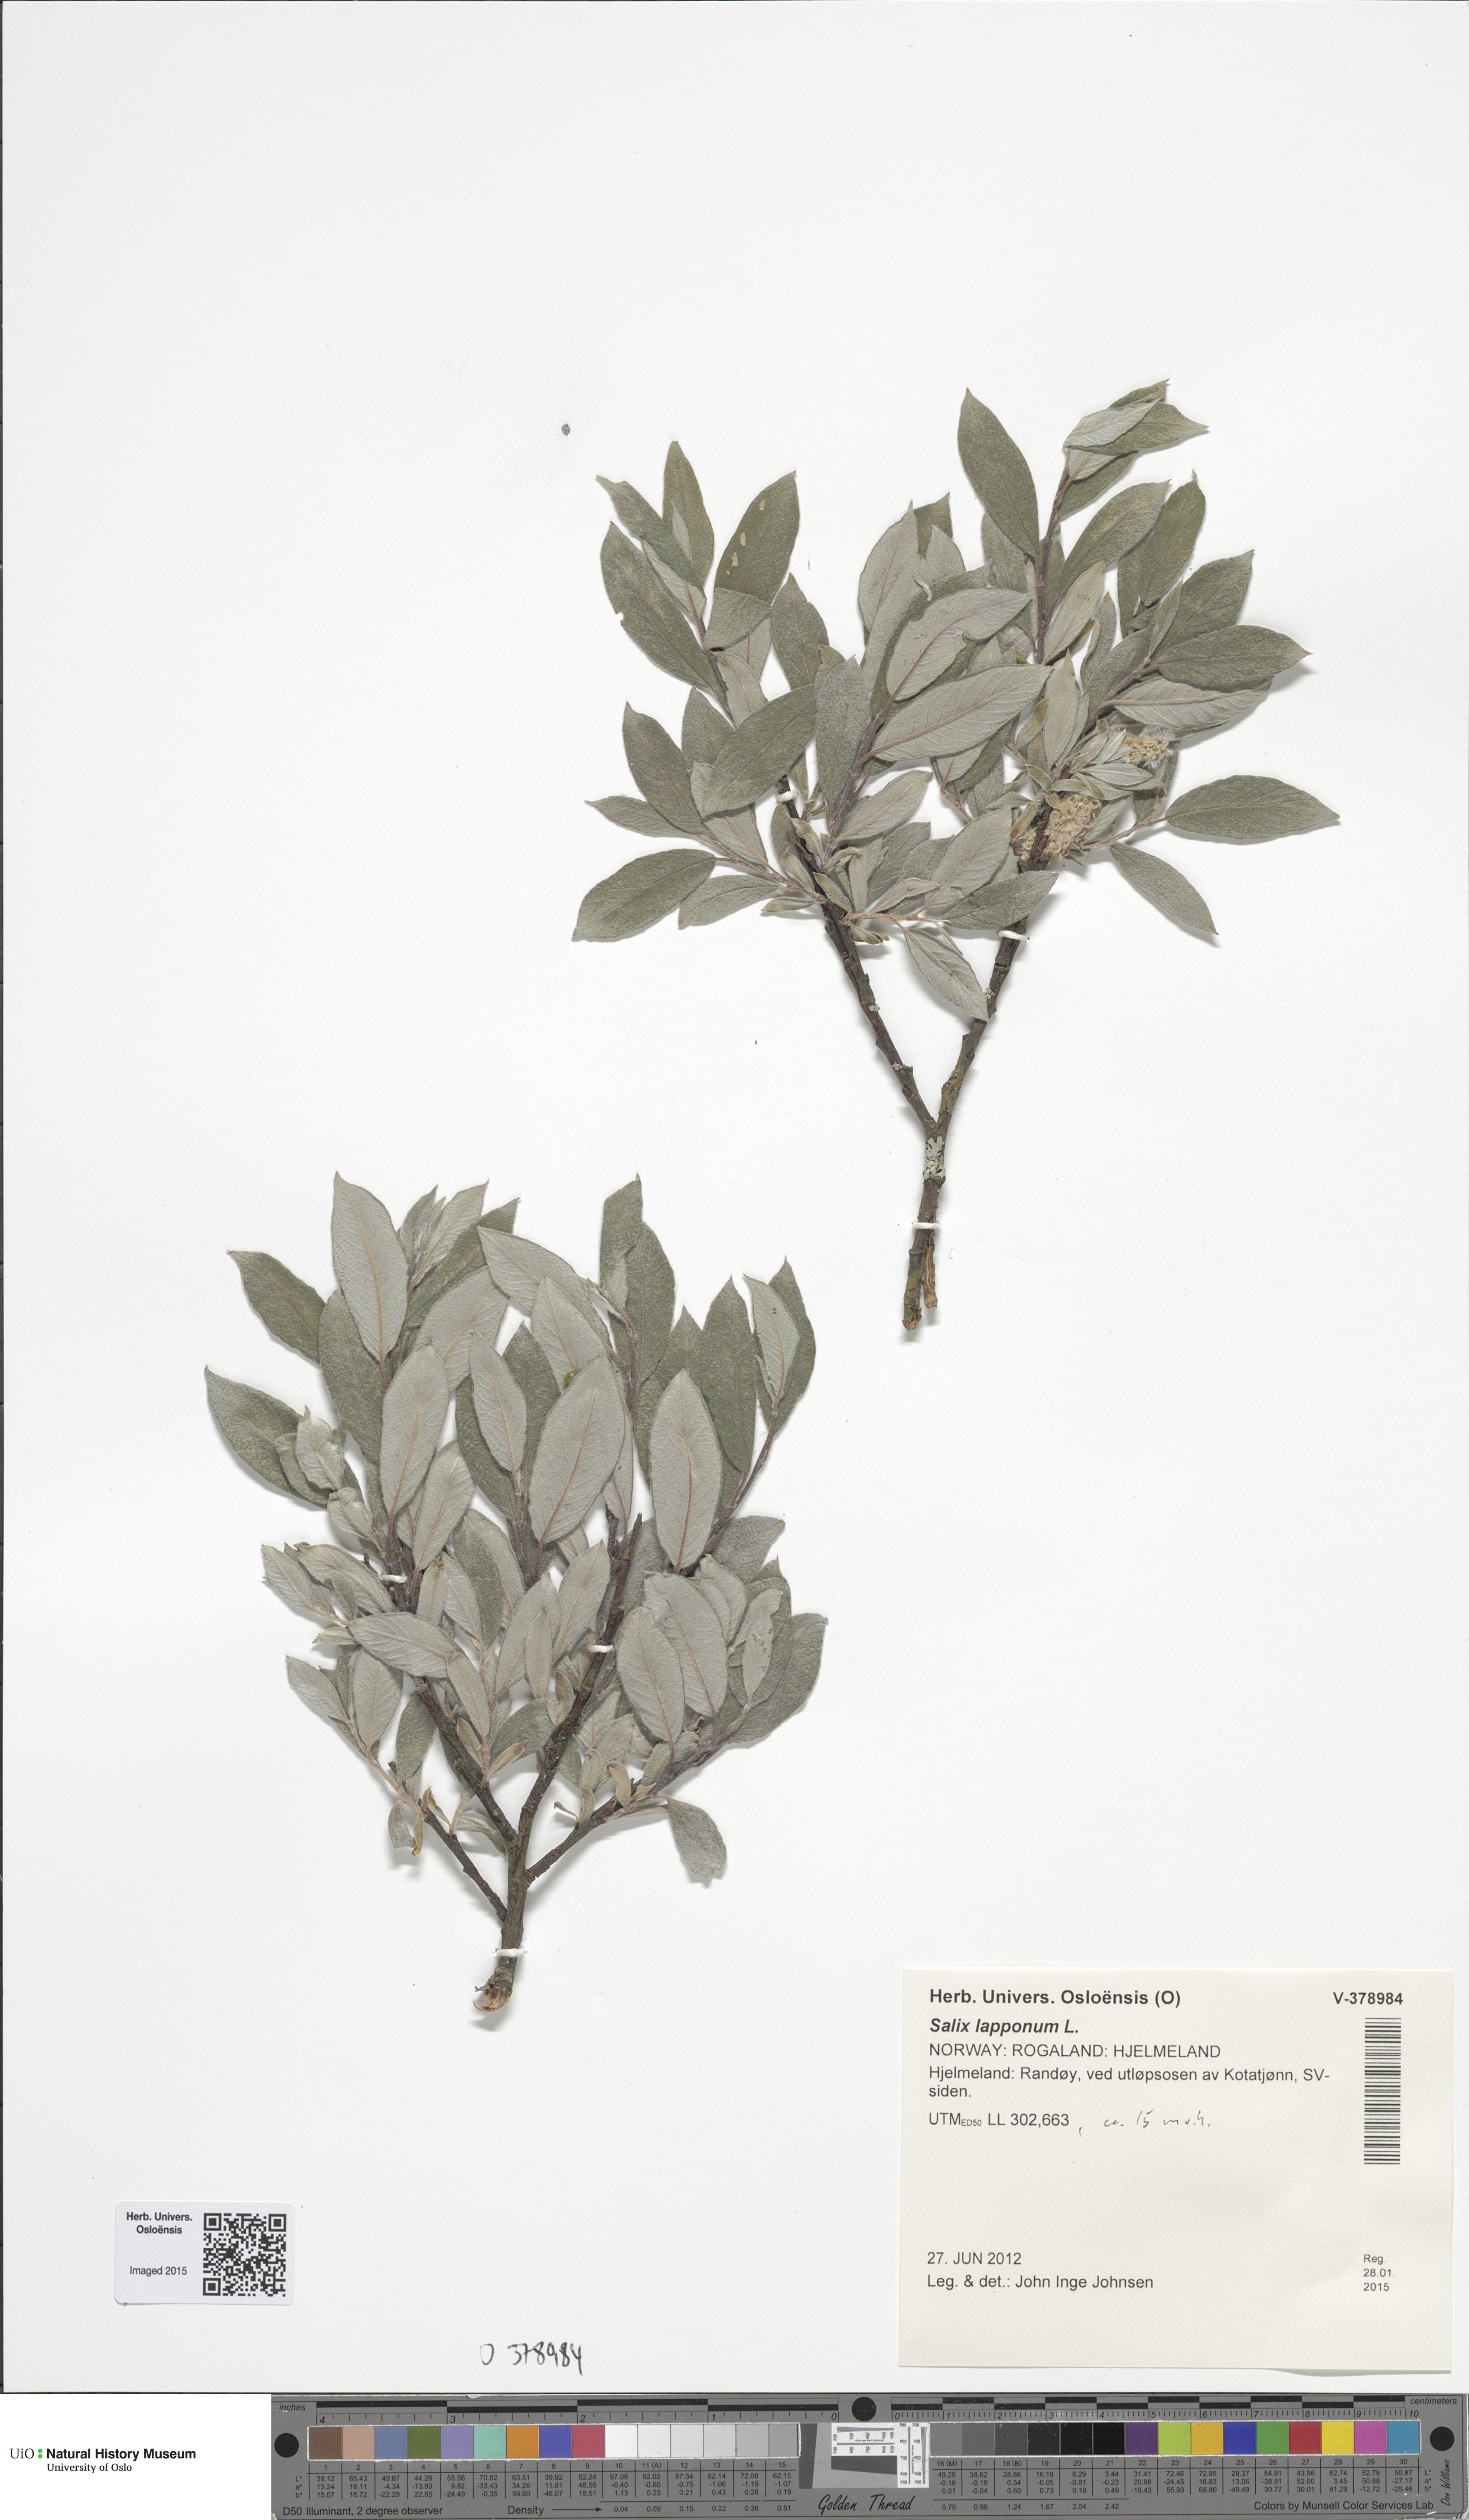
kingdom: Plantae
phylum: Tracheophyta
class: Magnoliopsida
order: Malpighiales
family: Salicaceae
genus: Salix
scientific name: Salix lapponum
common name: Downy willow
